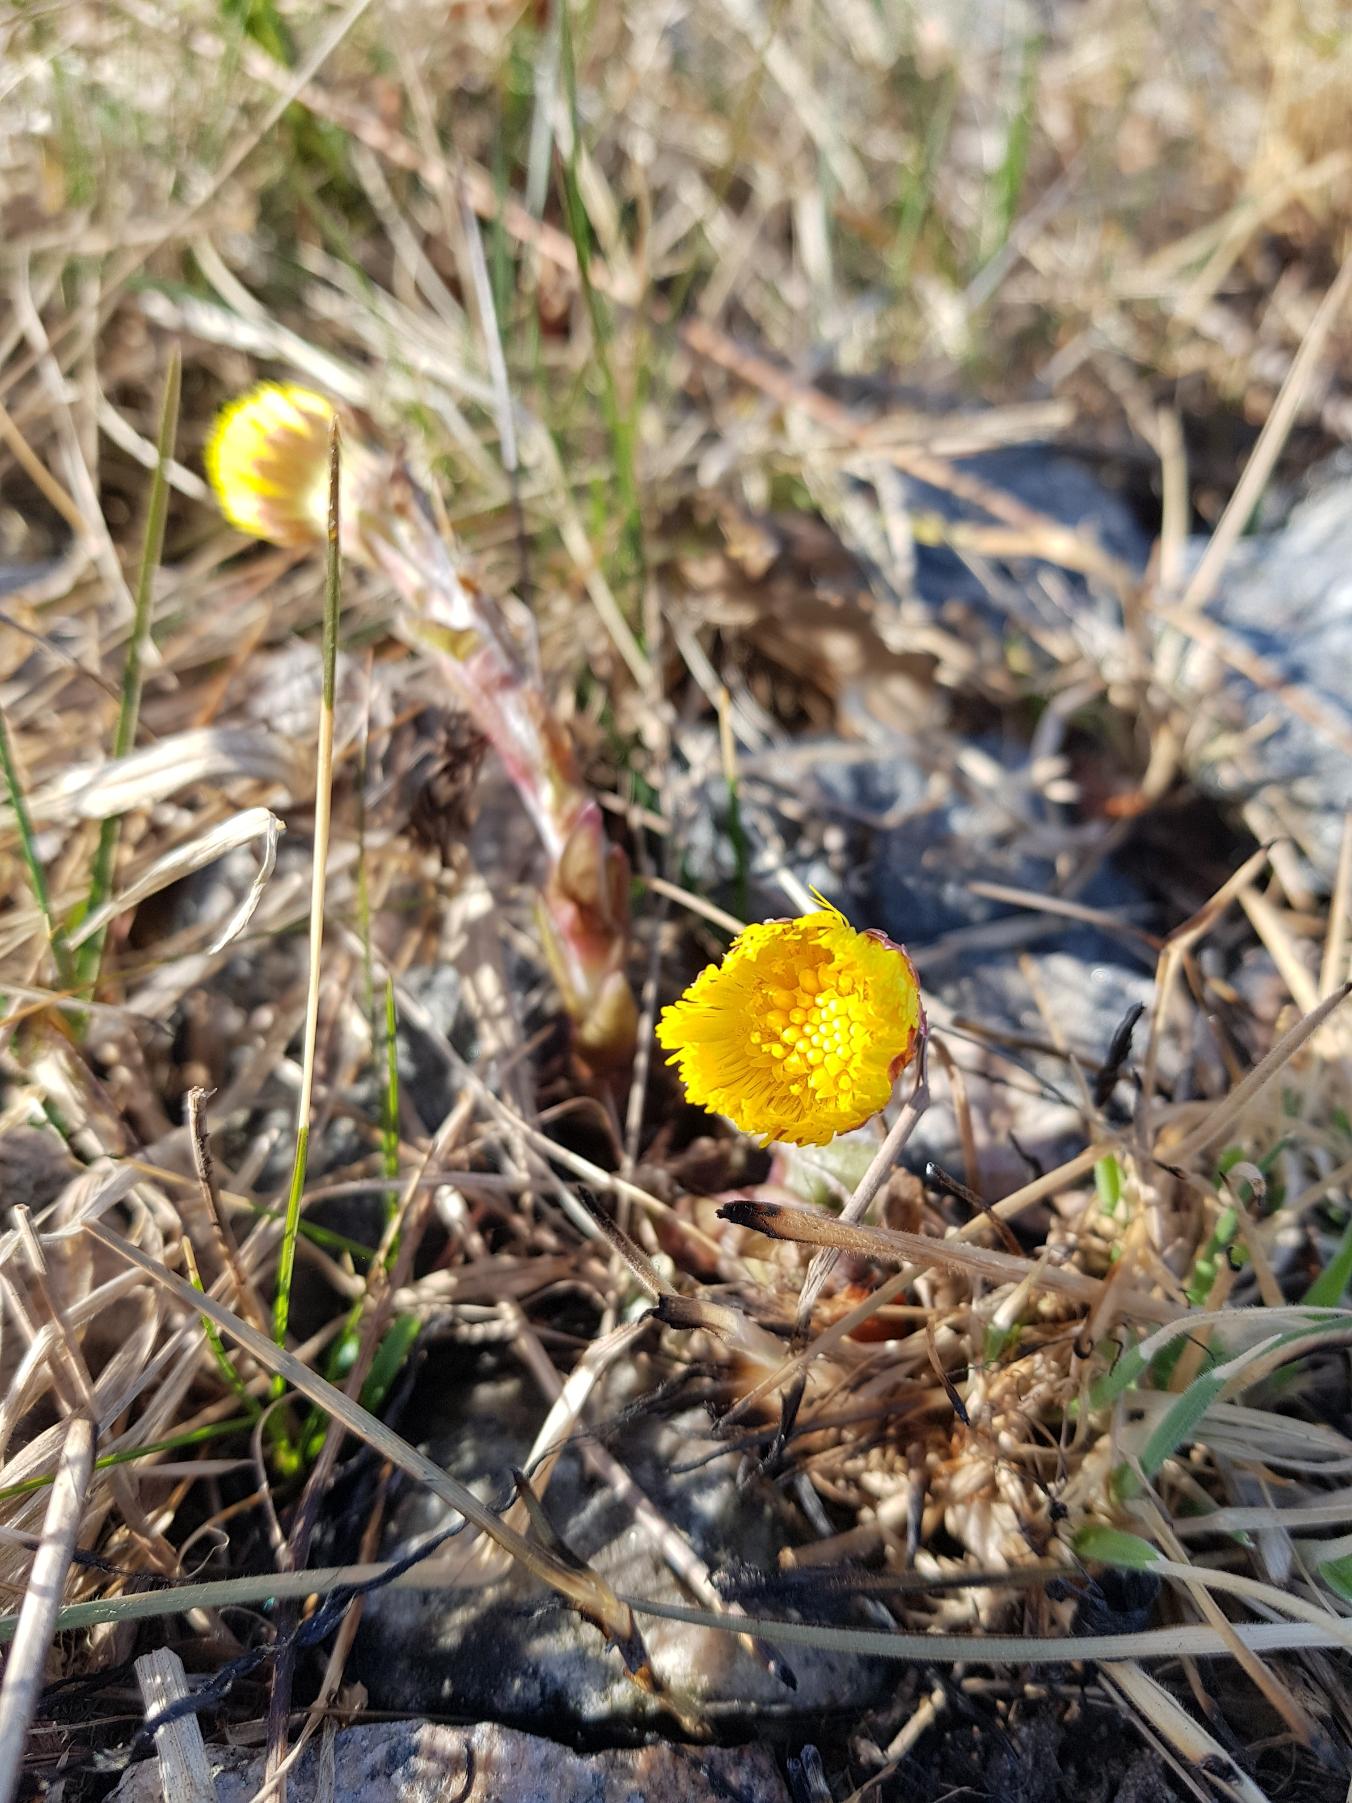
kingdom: Plantae
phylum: Tracheophyta
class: Magnoliopsida
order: Asterales
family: Asteraceae
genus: Tussilago
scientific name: Tussilago farfara
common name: Følfod
